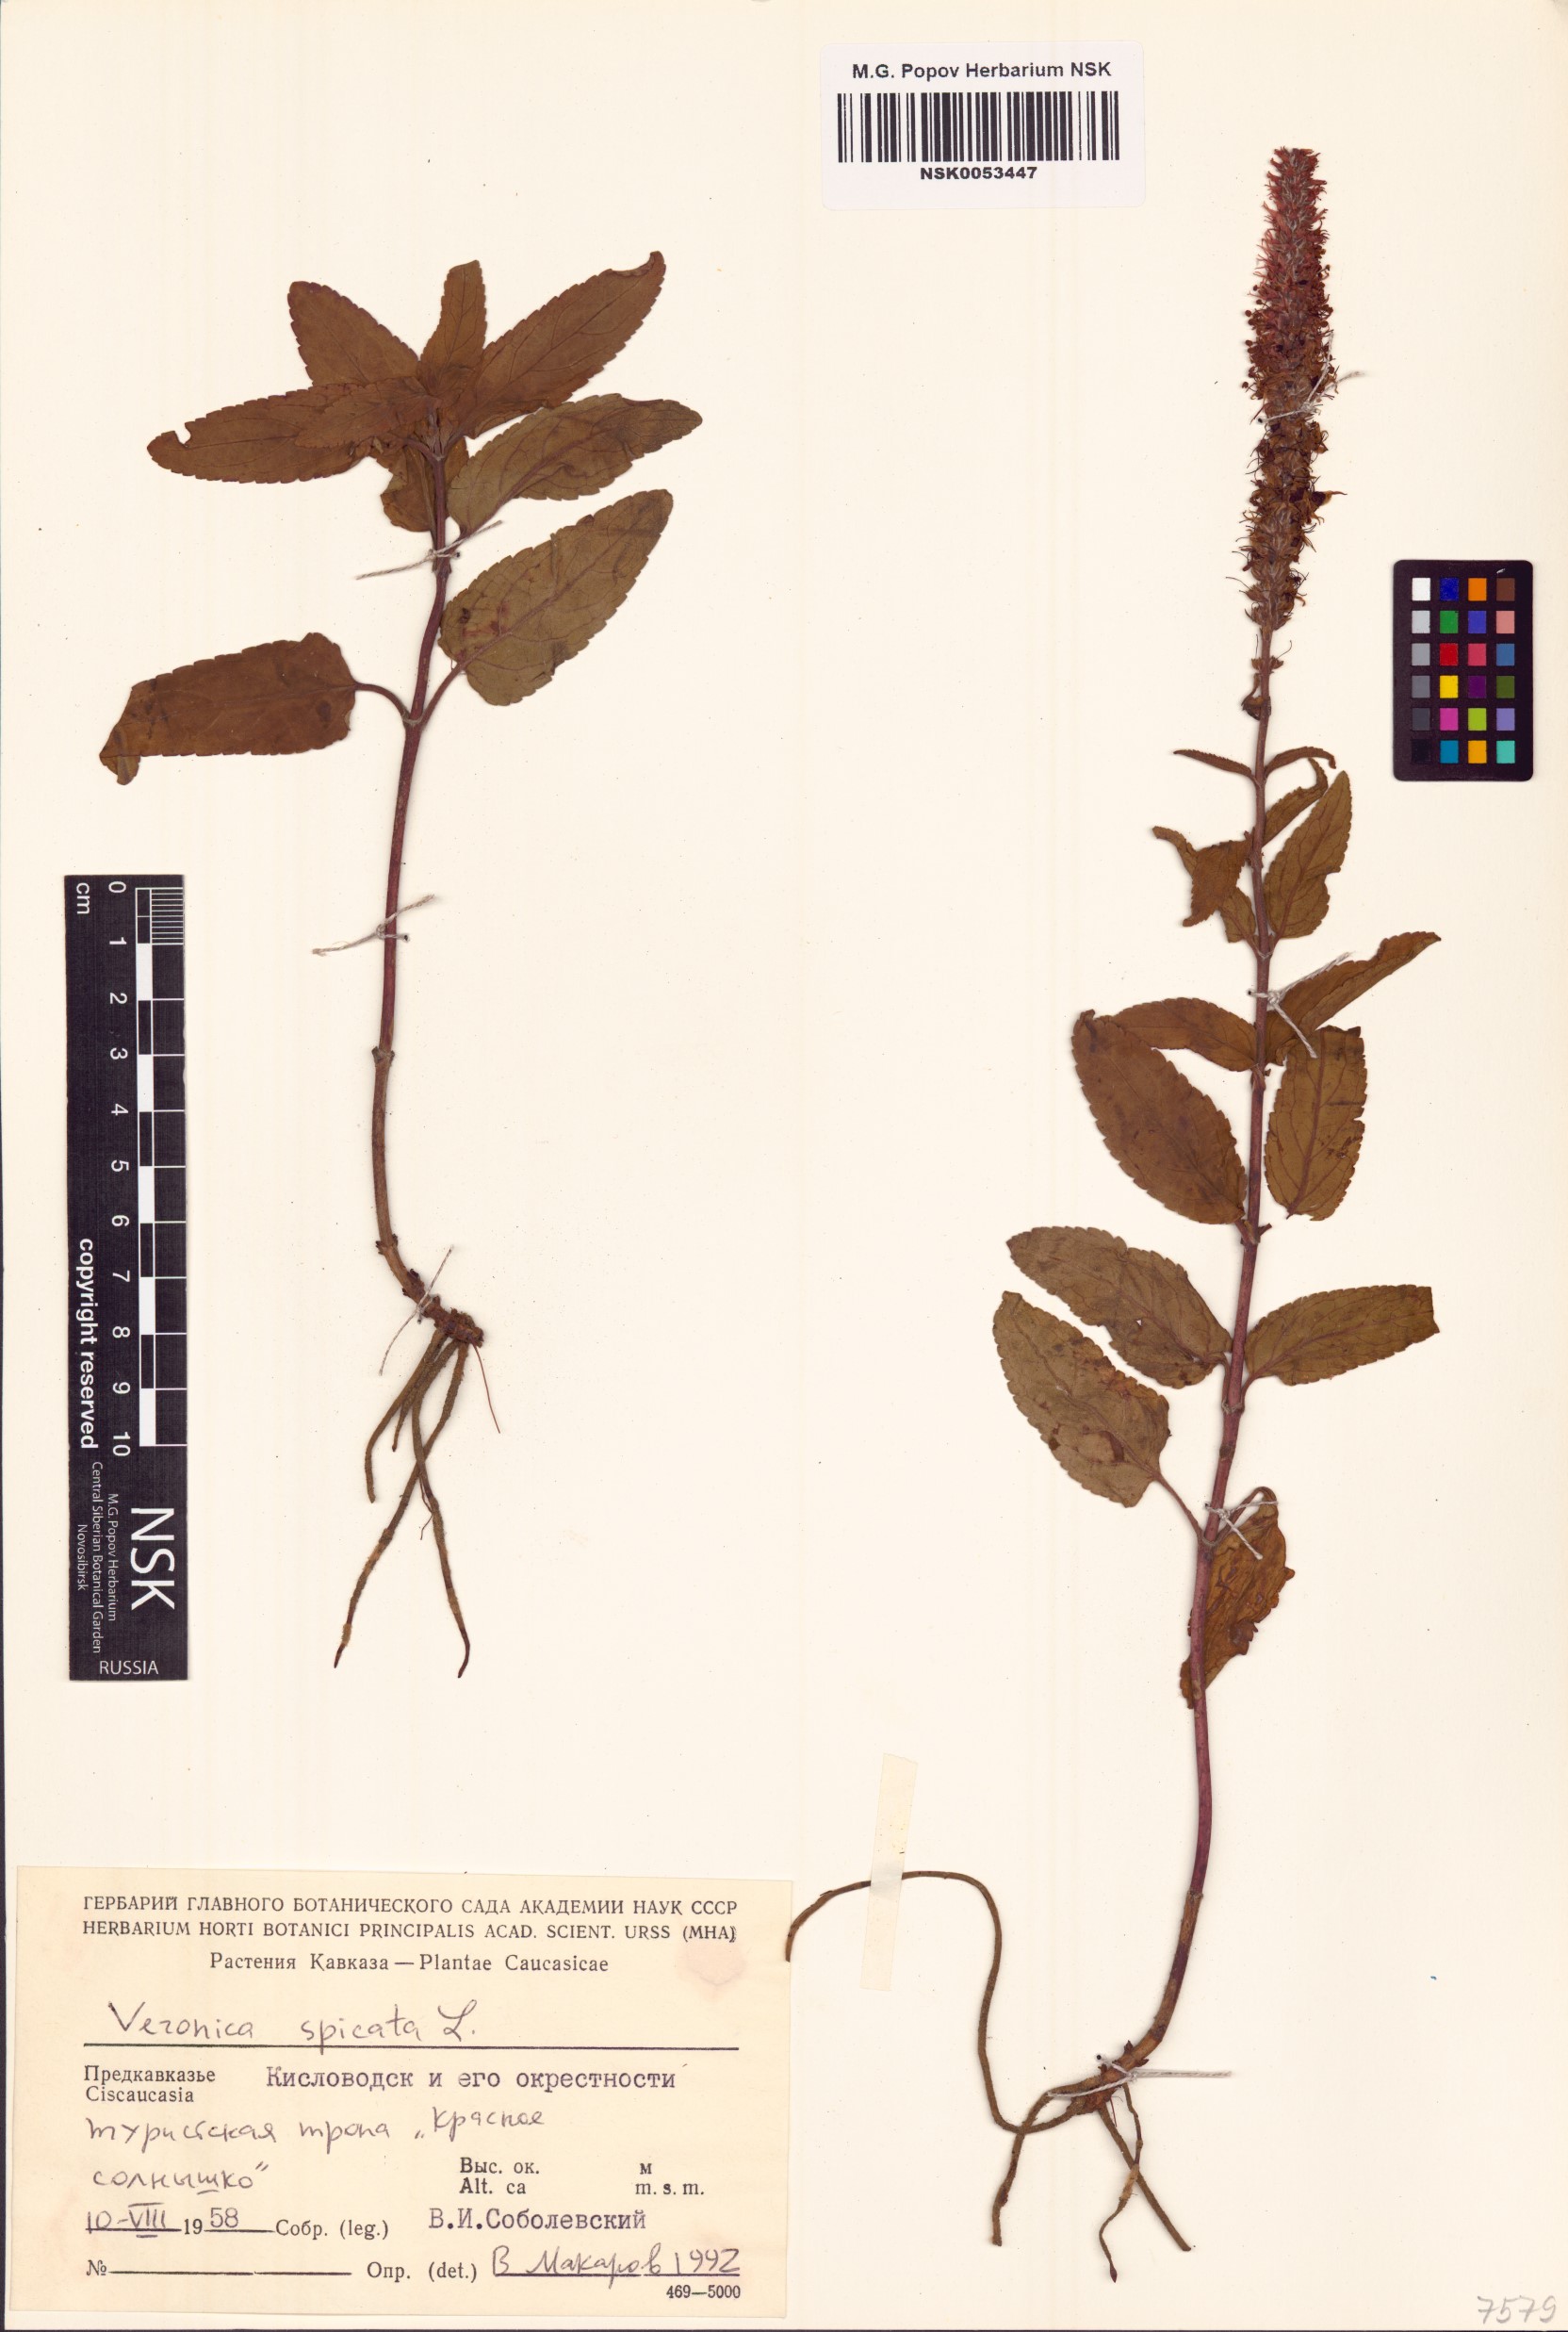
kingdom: Plantae
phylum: Tracheophyta
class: Magnoliopsida
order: Lamiales
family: Plantaginaceae
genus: Veronica
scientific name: Veronica spicata
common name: Spiked speedwell
